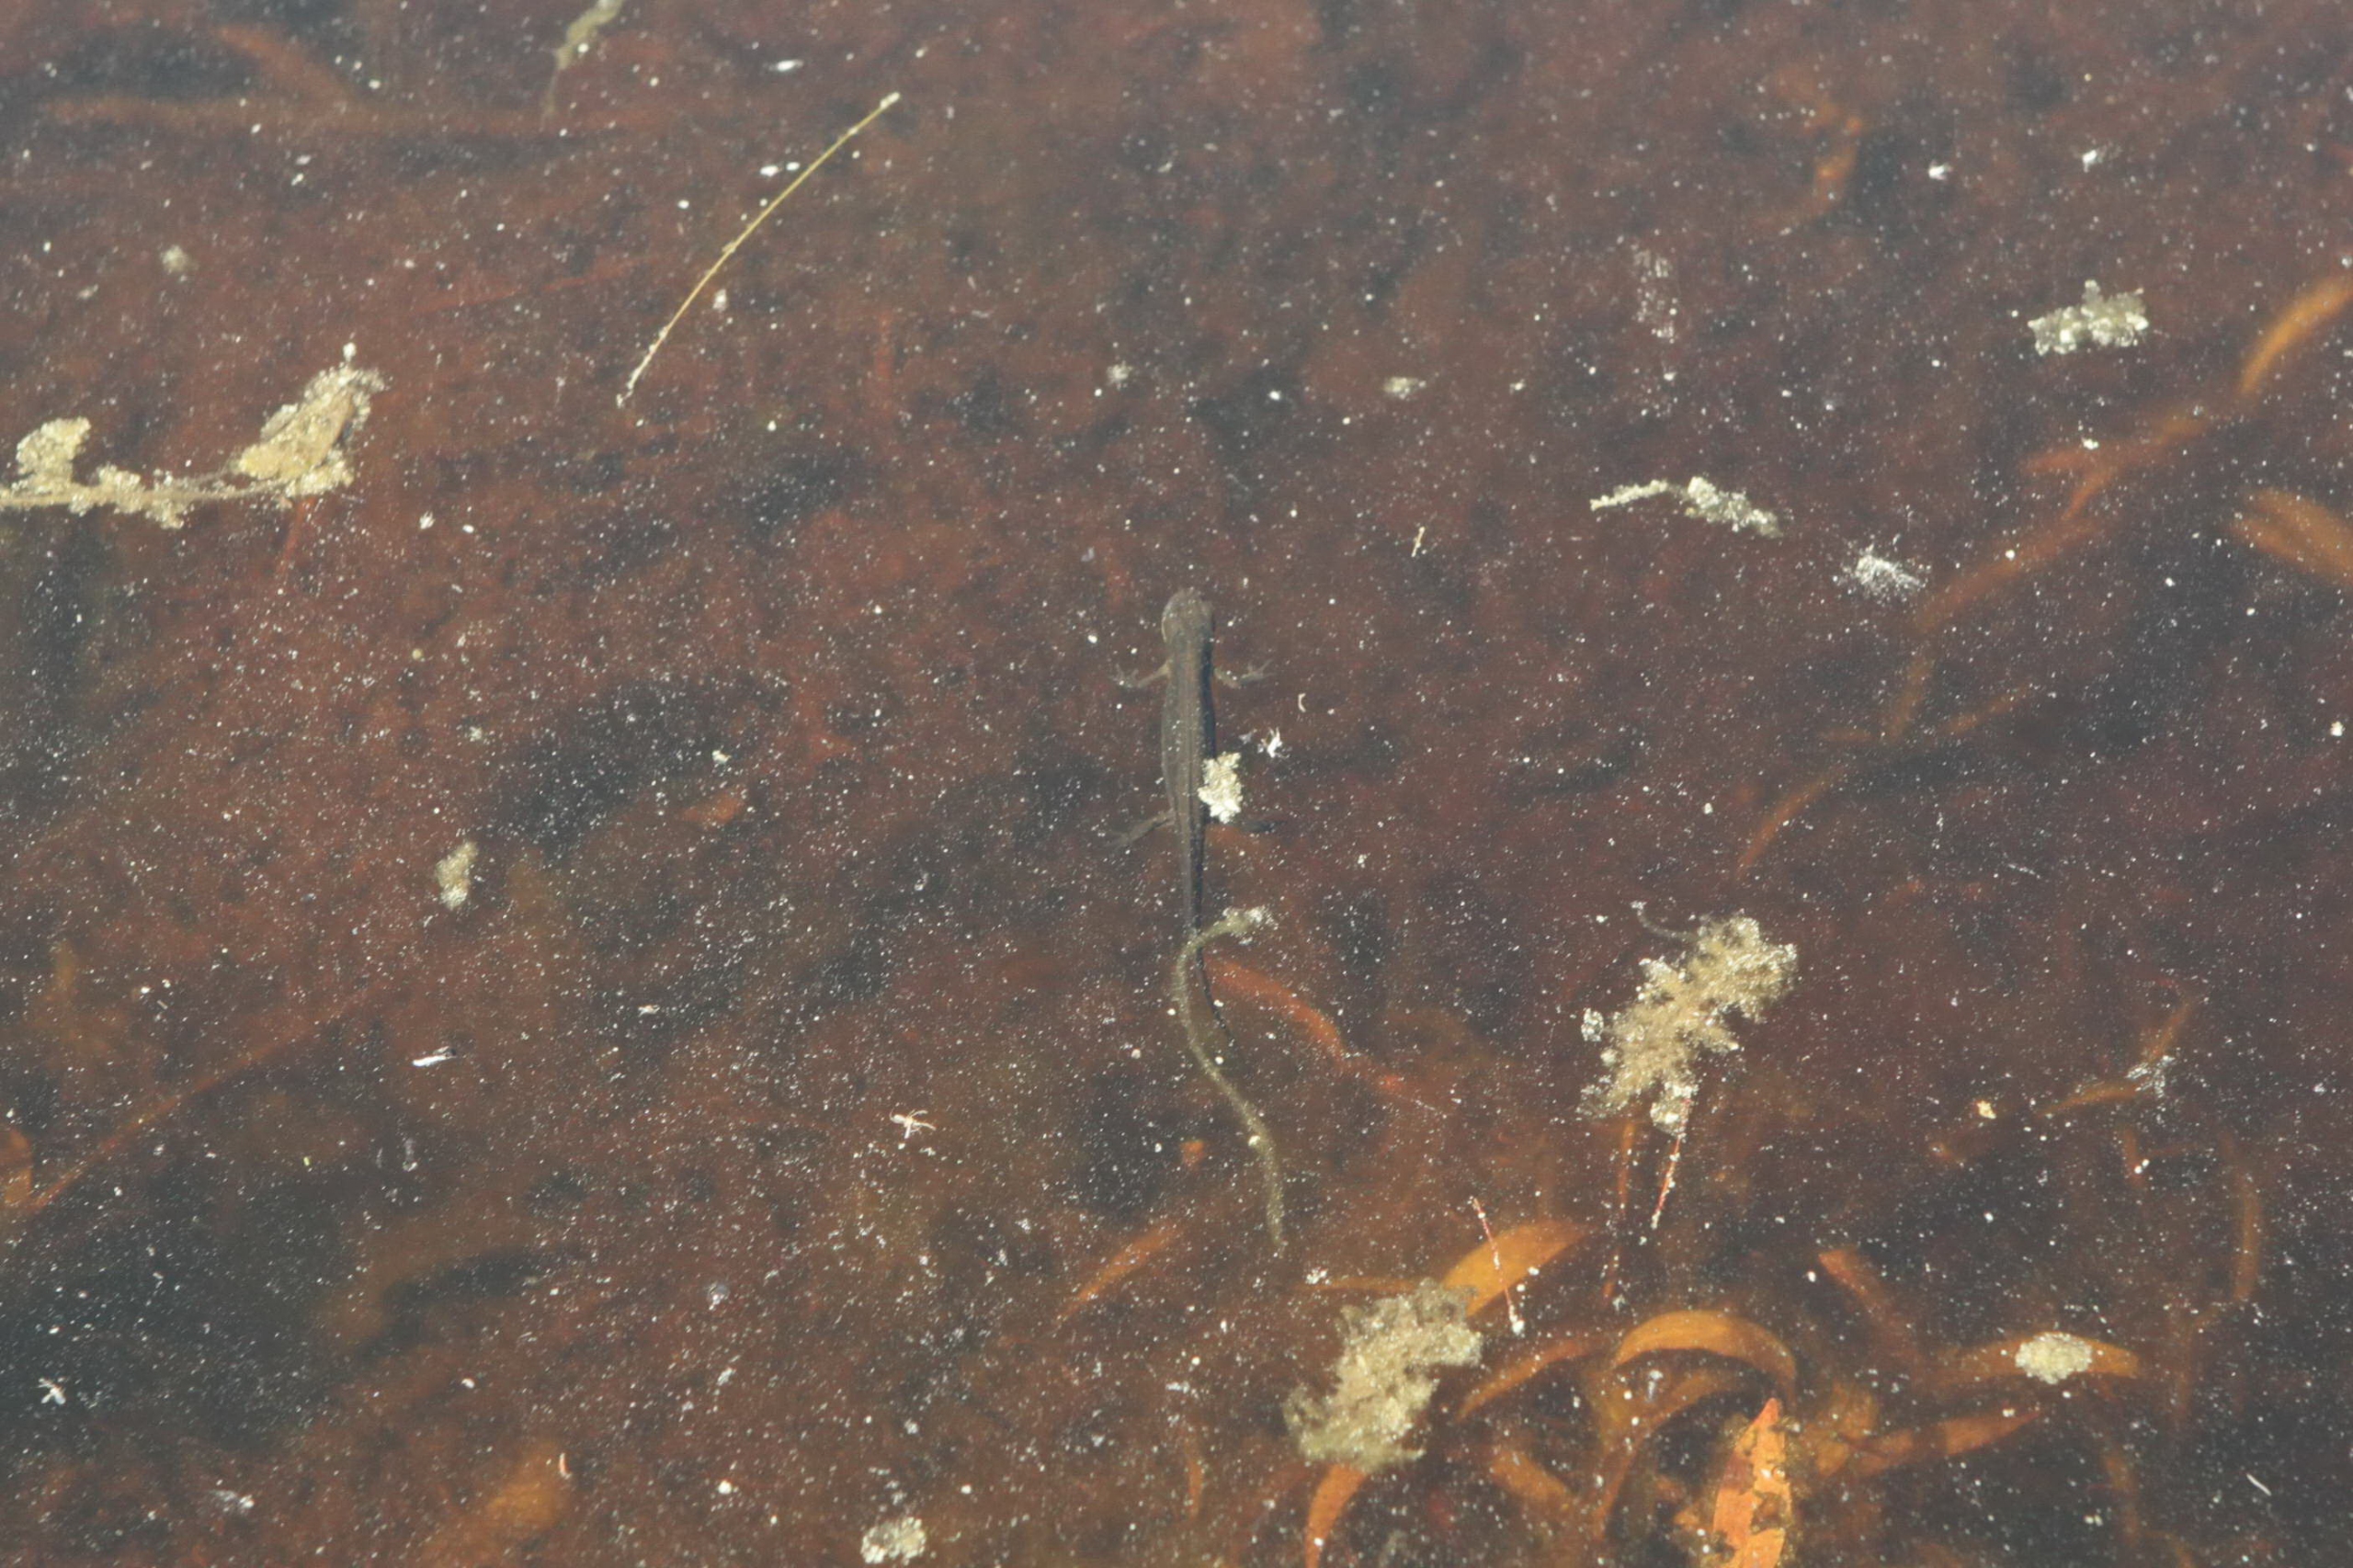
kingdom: Animalia
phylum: Chordata
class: Amphibia
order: Caudata
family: Salamandridae
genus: Lissotriton
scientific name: Lissotriton vulgaris
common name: Lille vandsalamander
